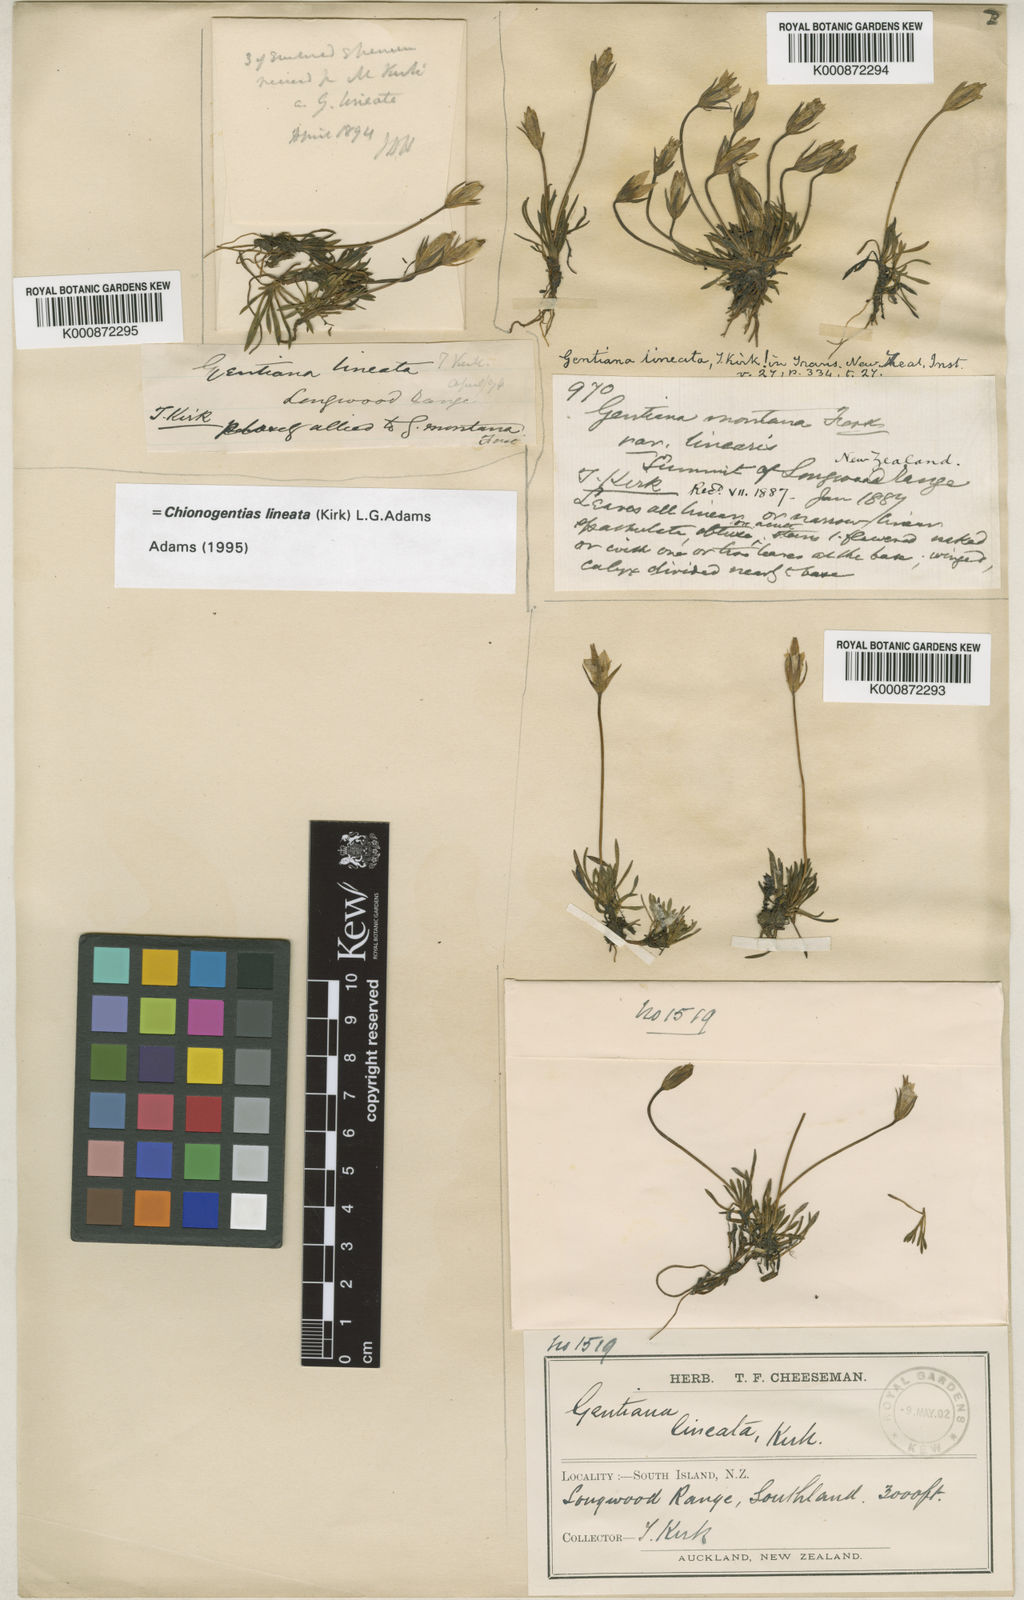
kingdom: Plantae
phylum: Tracheophyta
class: Magnoliopsida
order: Gentianales
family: Gentianaceae
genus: Gentianella
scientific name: Gentianella lineata
